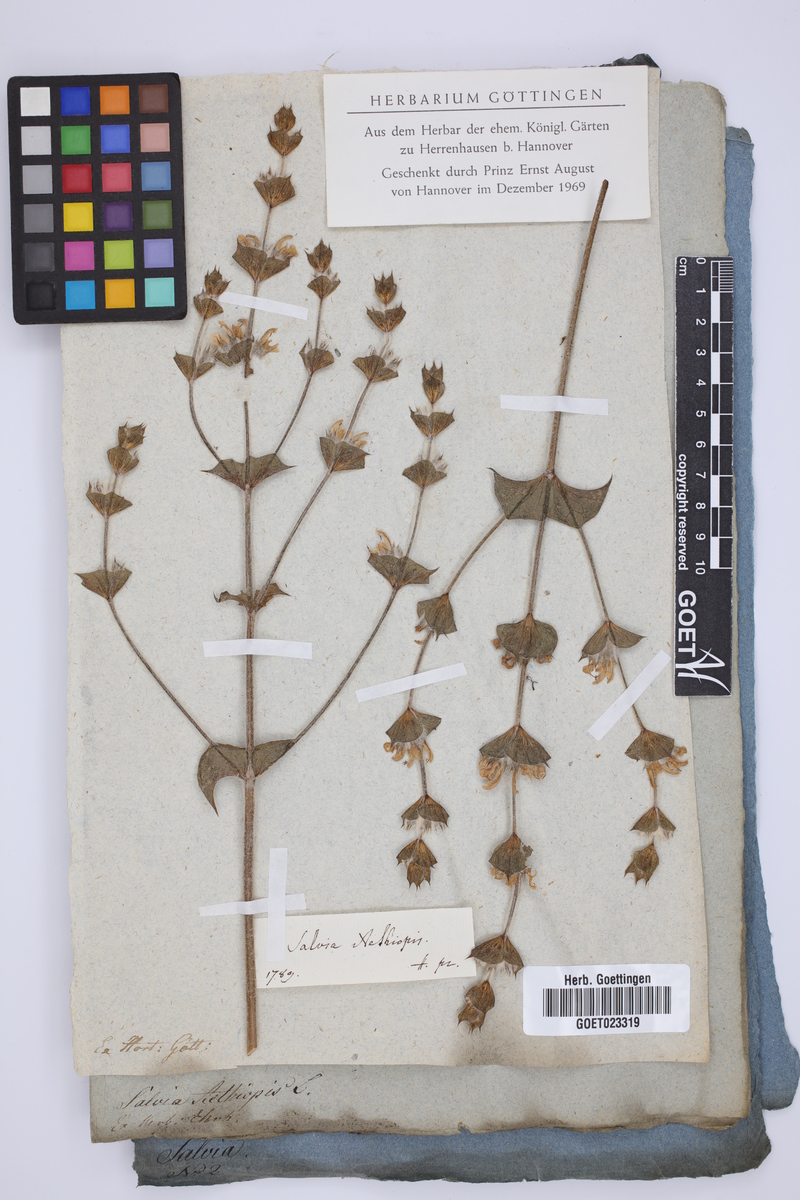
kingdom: Plantae
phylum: Tracheophyta
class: Magnoliopsida
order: Lamiales
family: Lamiaceae
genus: Salvia
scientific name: Salvia aethiopis
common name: Mediterranean sage
